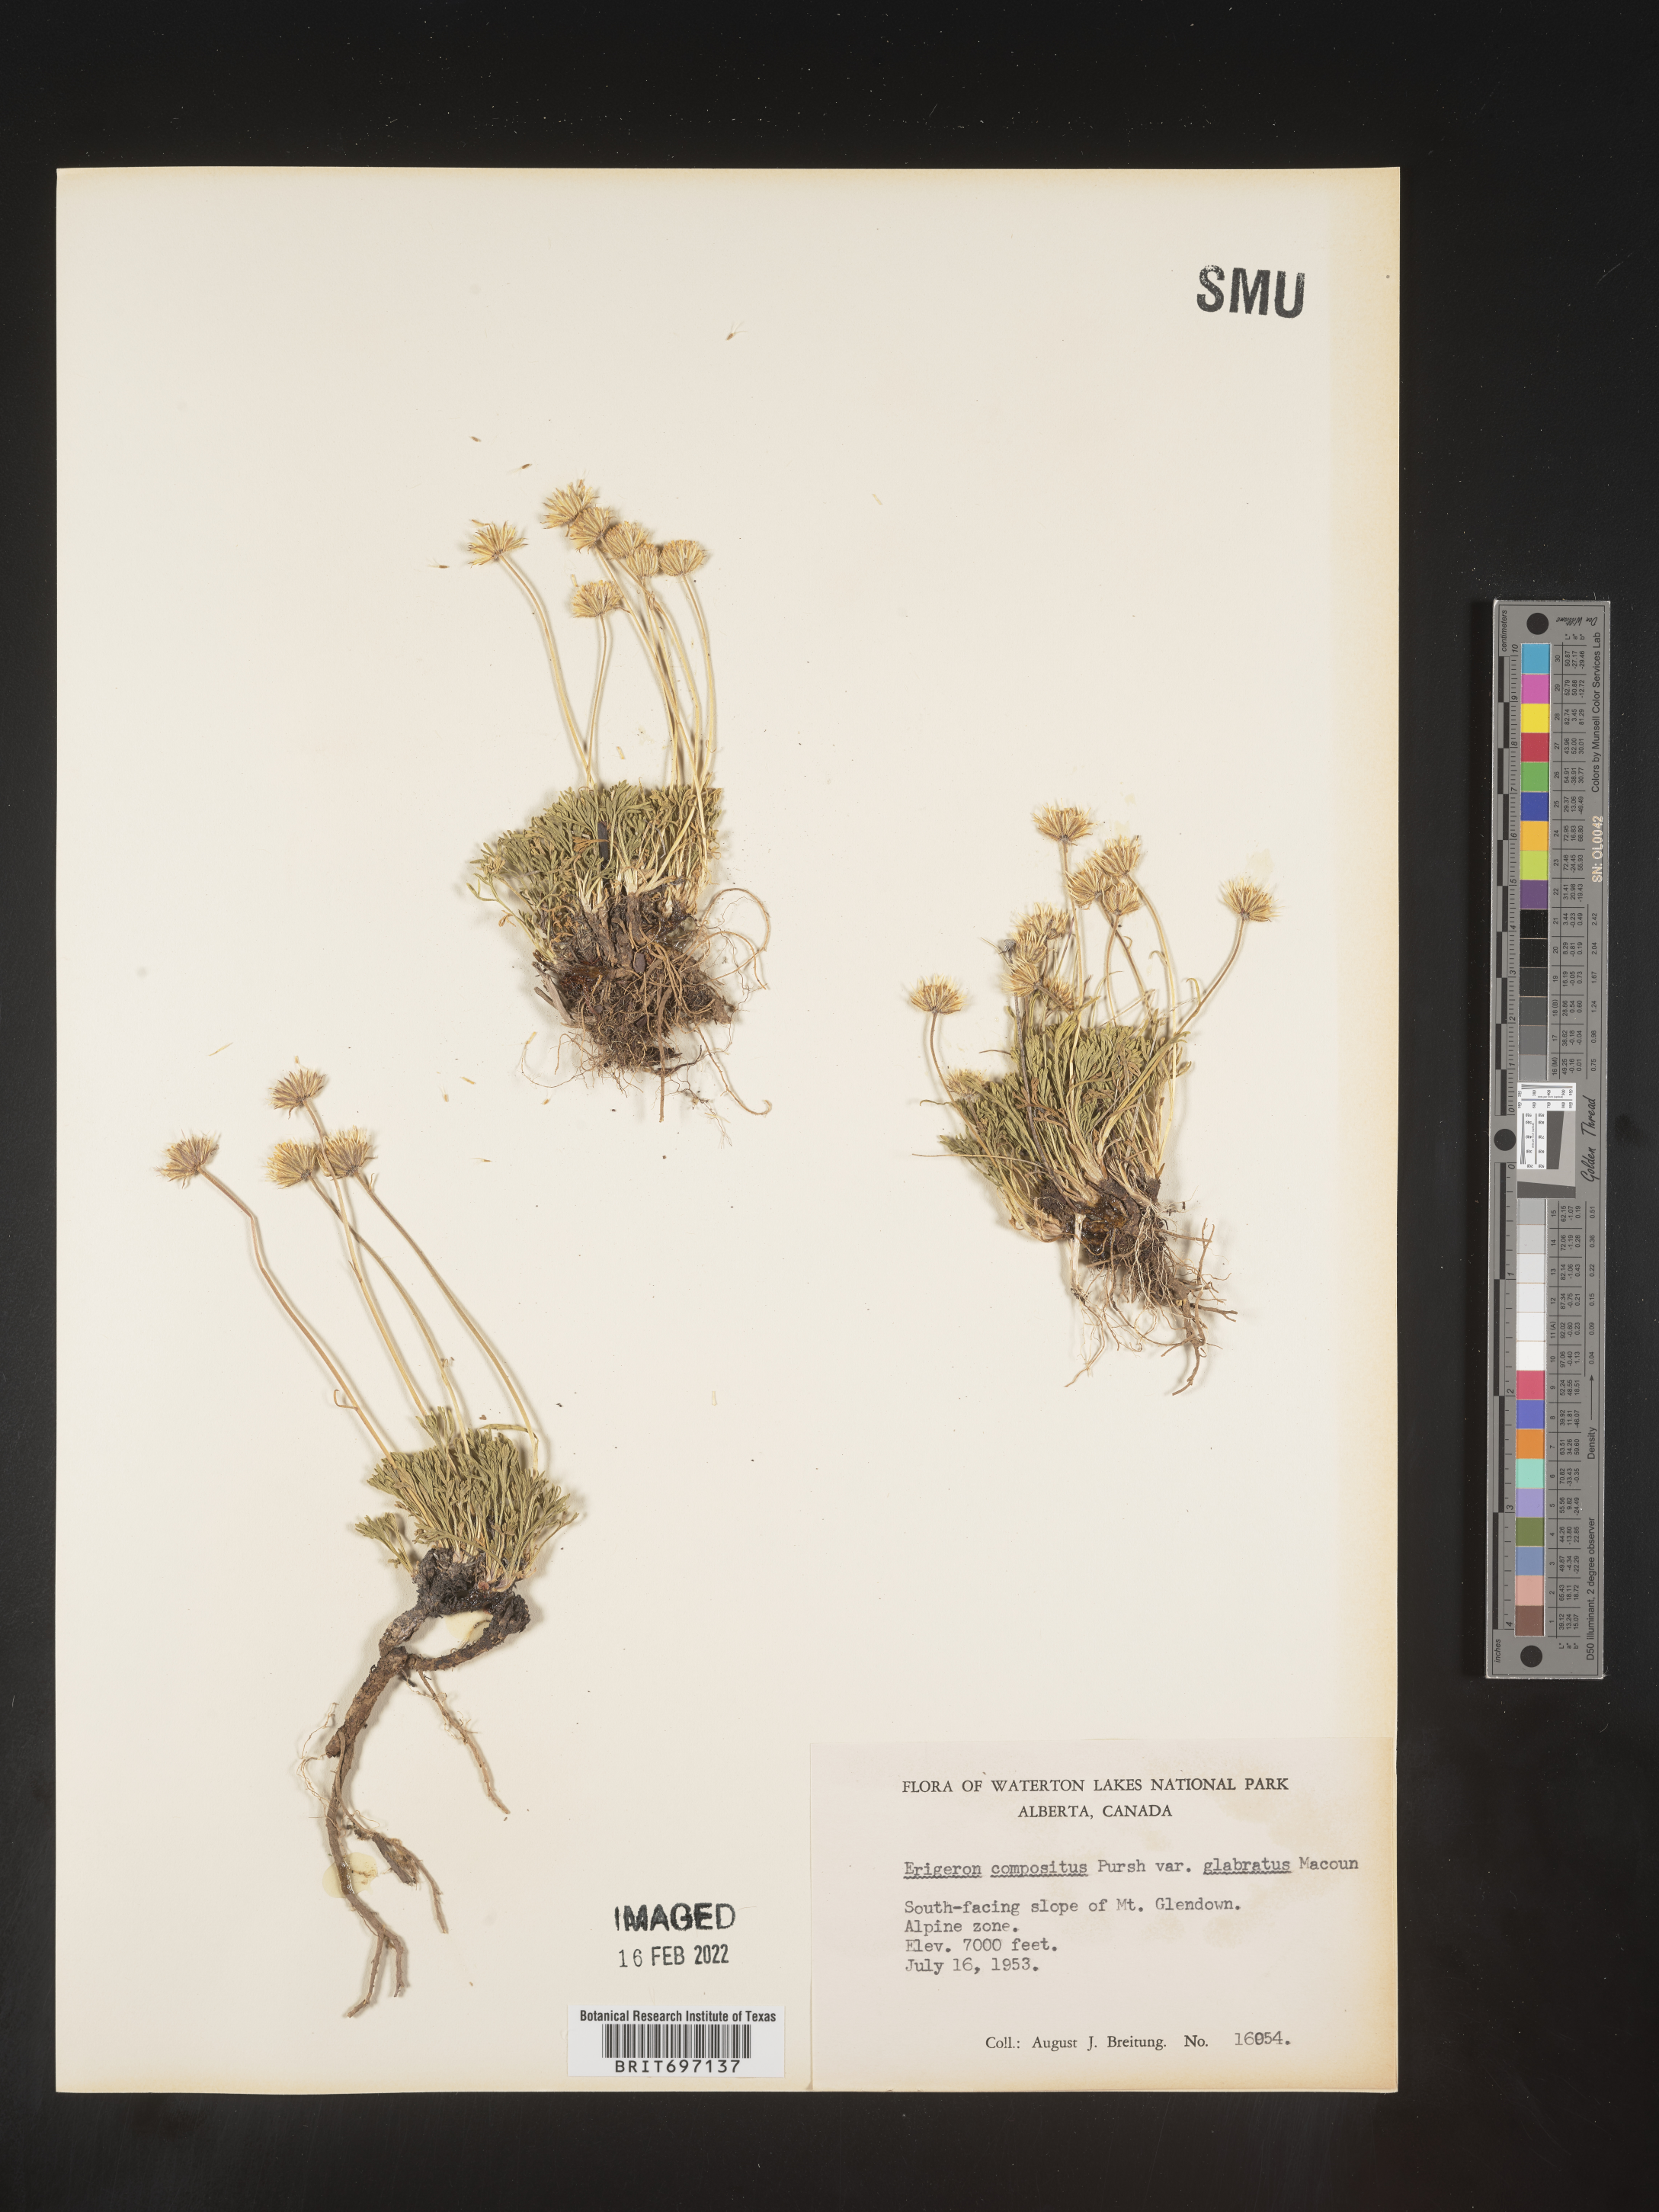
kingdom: Plantae
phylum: Tracheophyta
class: Magnoliopsida
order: Asterales
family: Asteraceae
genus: Erigeron
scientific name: Erigeron compositus
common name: Dwarf mountain fleabane
